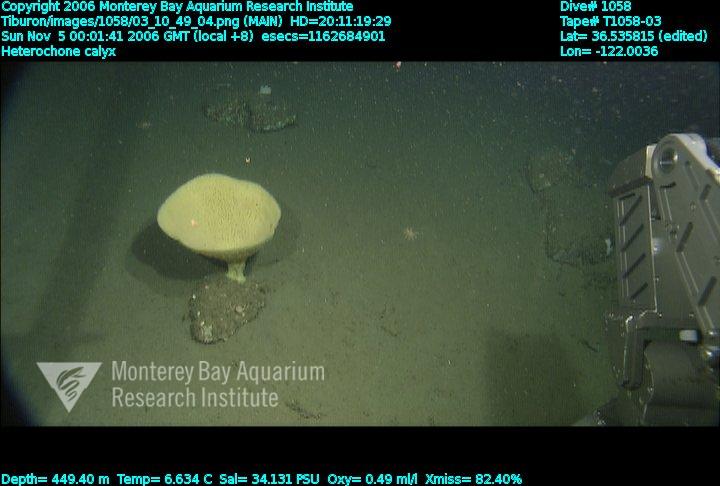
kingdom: Animalia
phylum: Porifera
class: Hexactinellida
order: Sceptrulophora
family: Aphrocallistidae
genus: Heterochone
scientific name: Heterochone calyx
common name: Fingered goblet glass sponge
